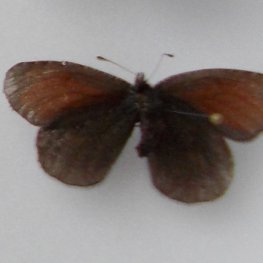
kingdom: Animalia
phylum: Arthropoda
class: Insecta
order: Lepidoptera
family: Nymphalidae
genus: Erebia
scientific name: Erebia discoidalis
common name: Red-disked Alpine
